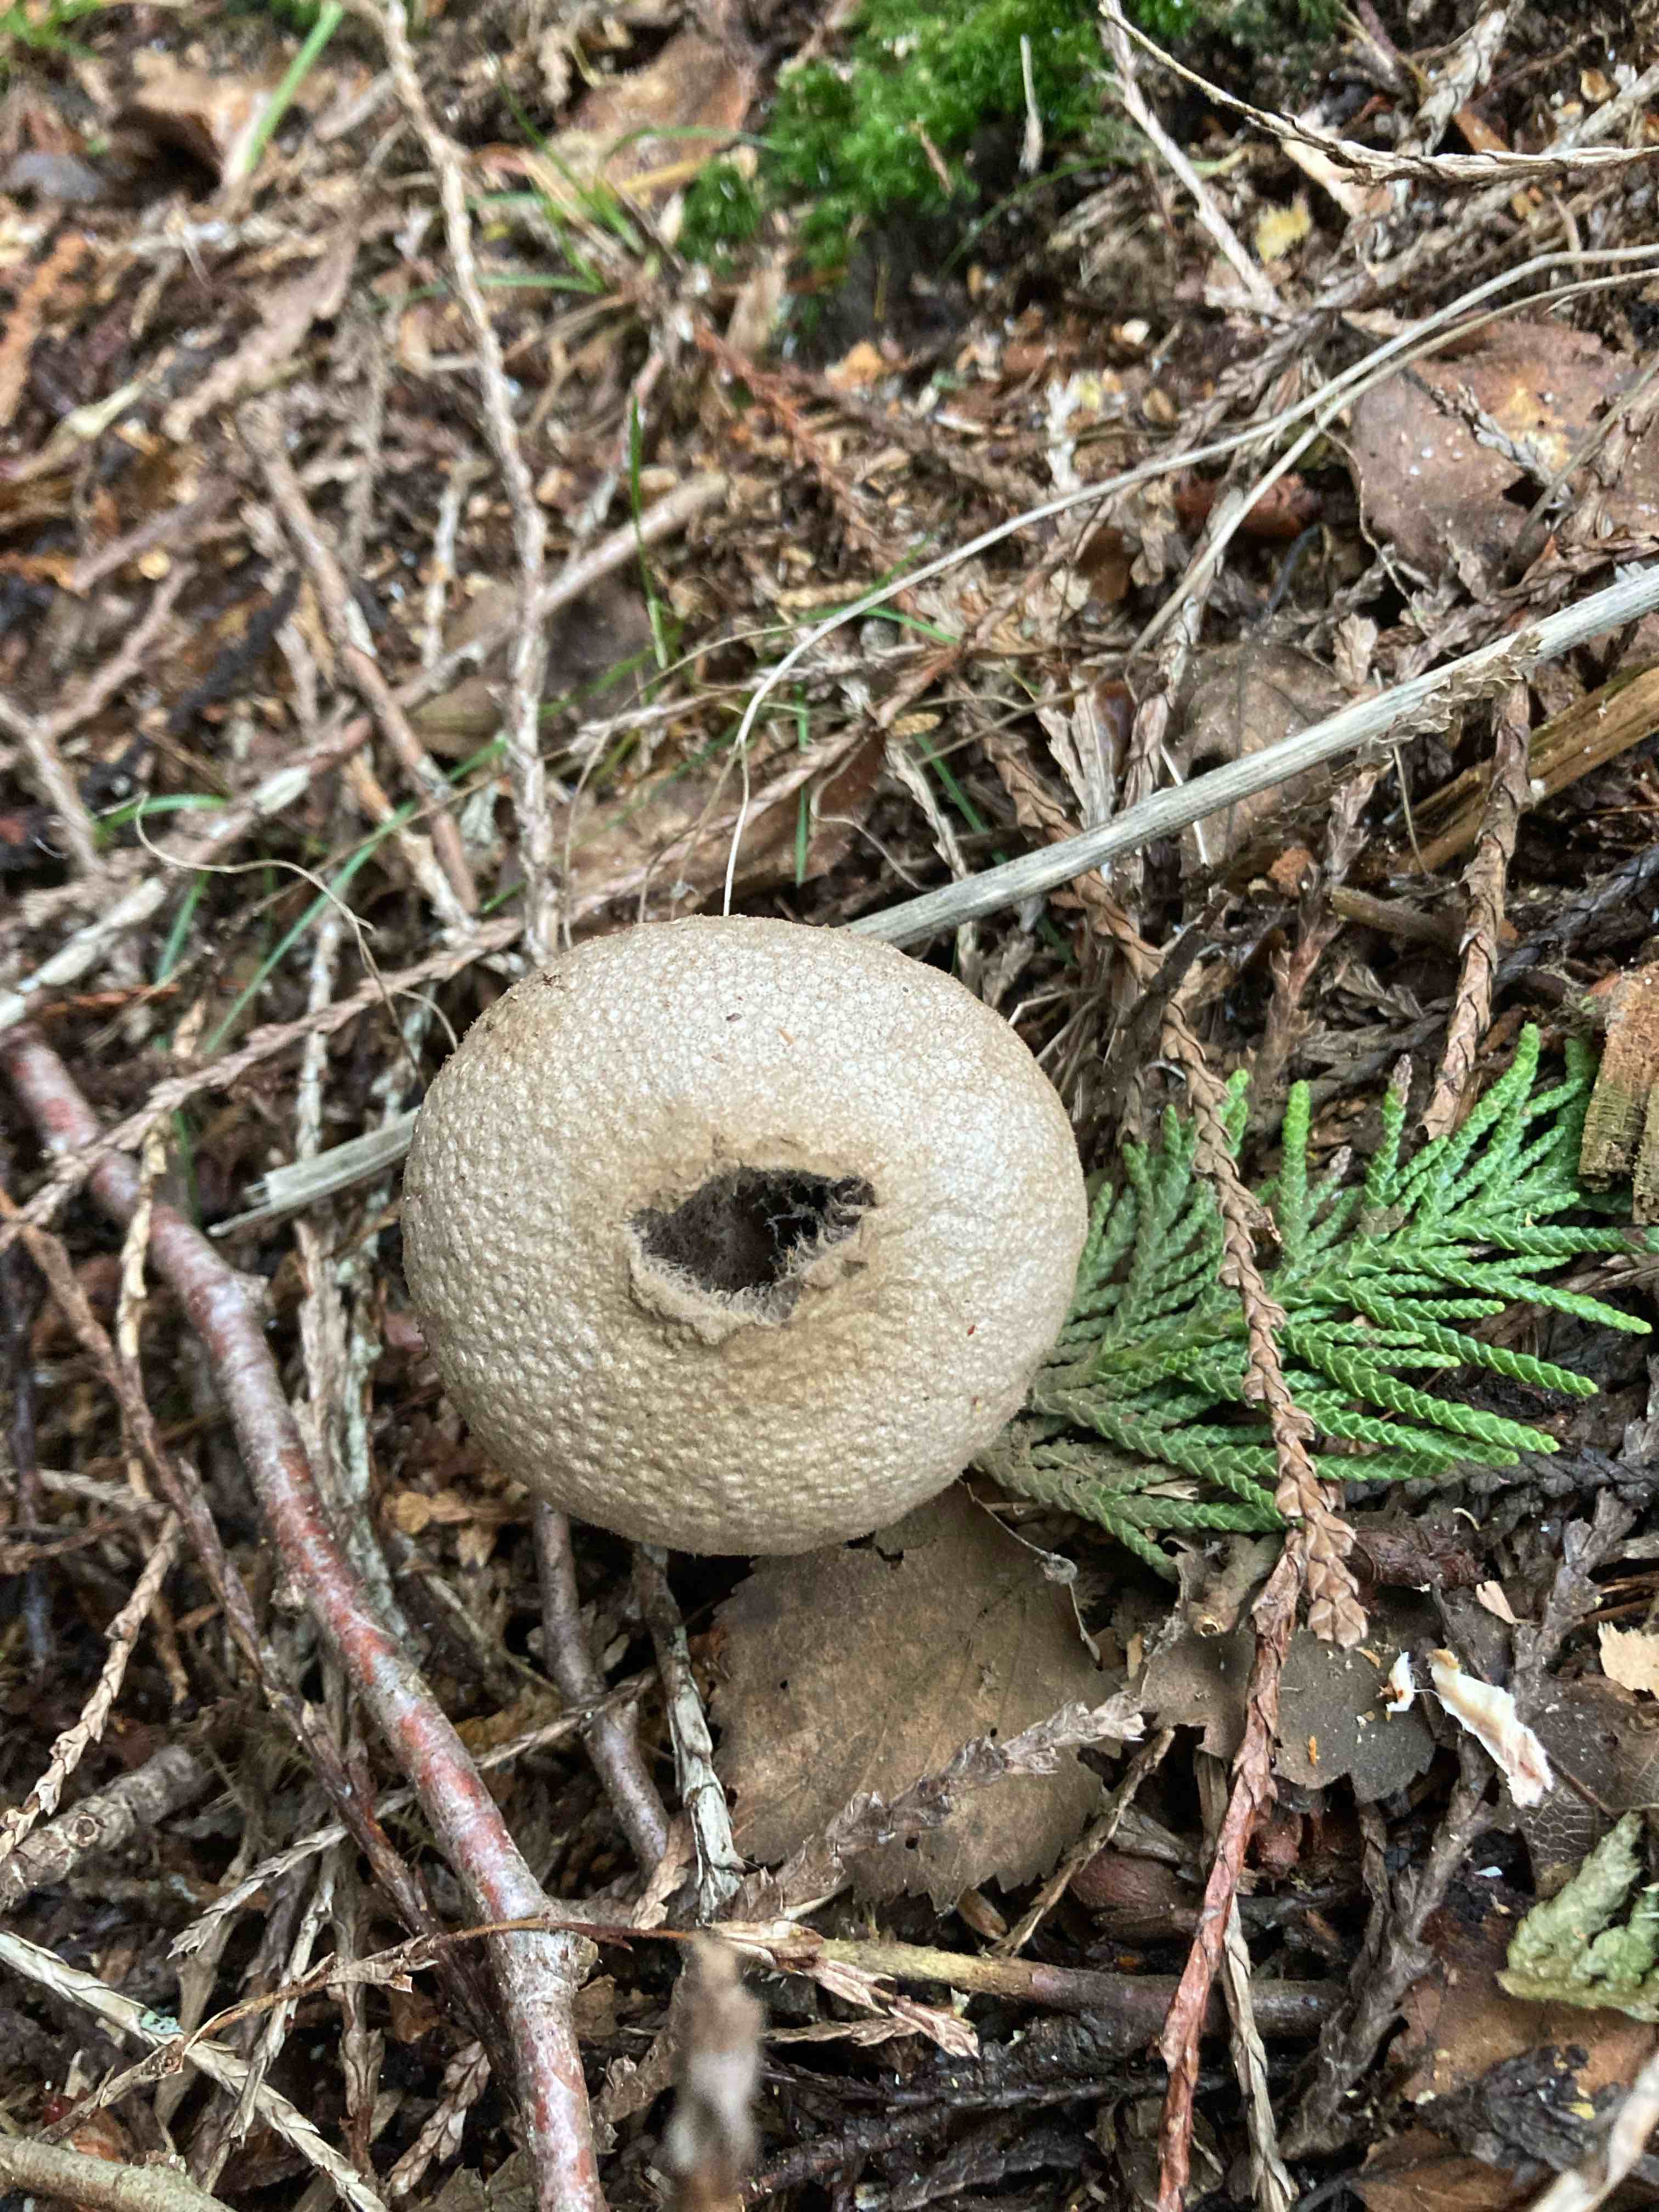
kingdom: Fungi
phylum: Basidiomycota
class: Agaricomycetes
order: Agaricales
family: Lycoperdaceae
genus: Lycoperdon
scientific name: Lycoperdon perlatum
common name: krystal-støvbold
